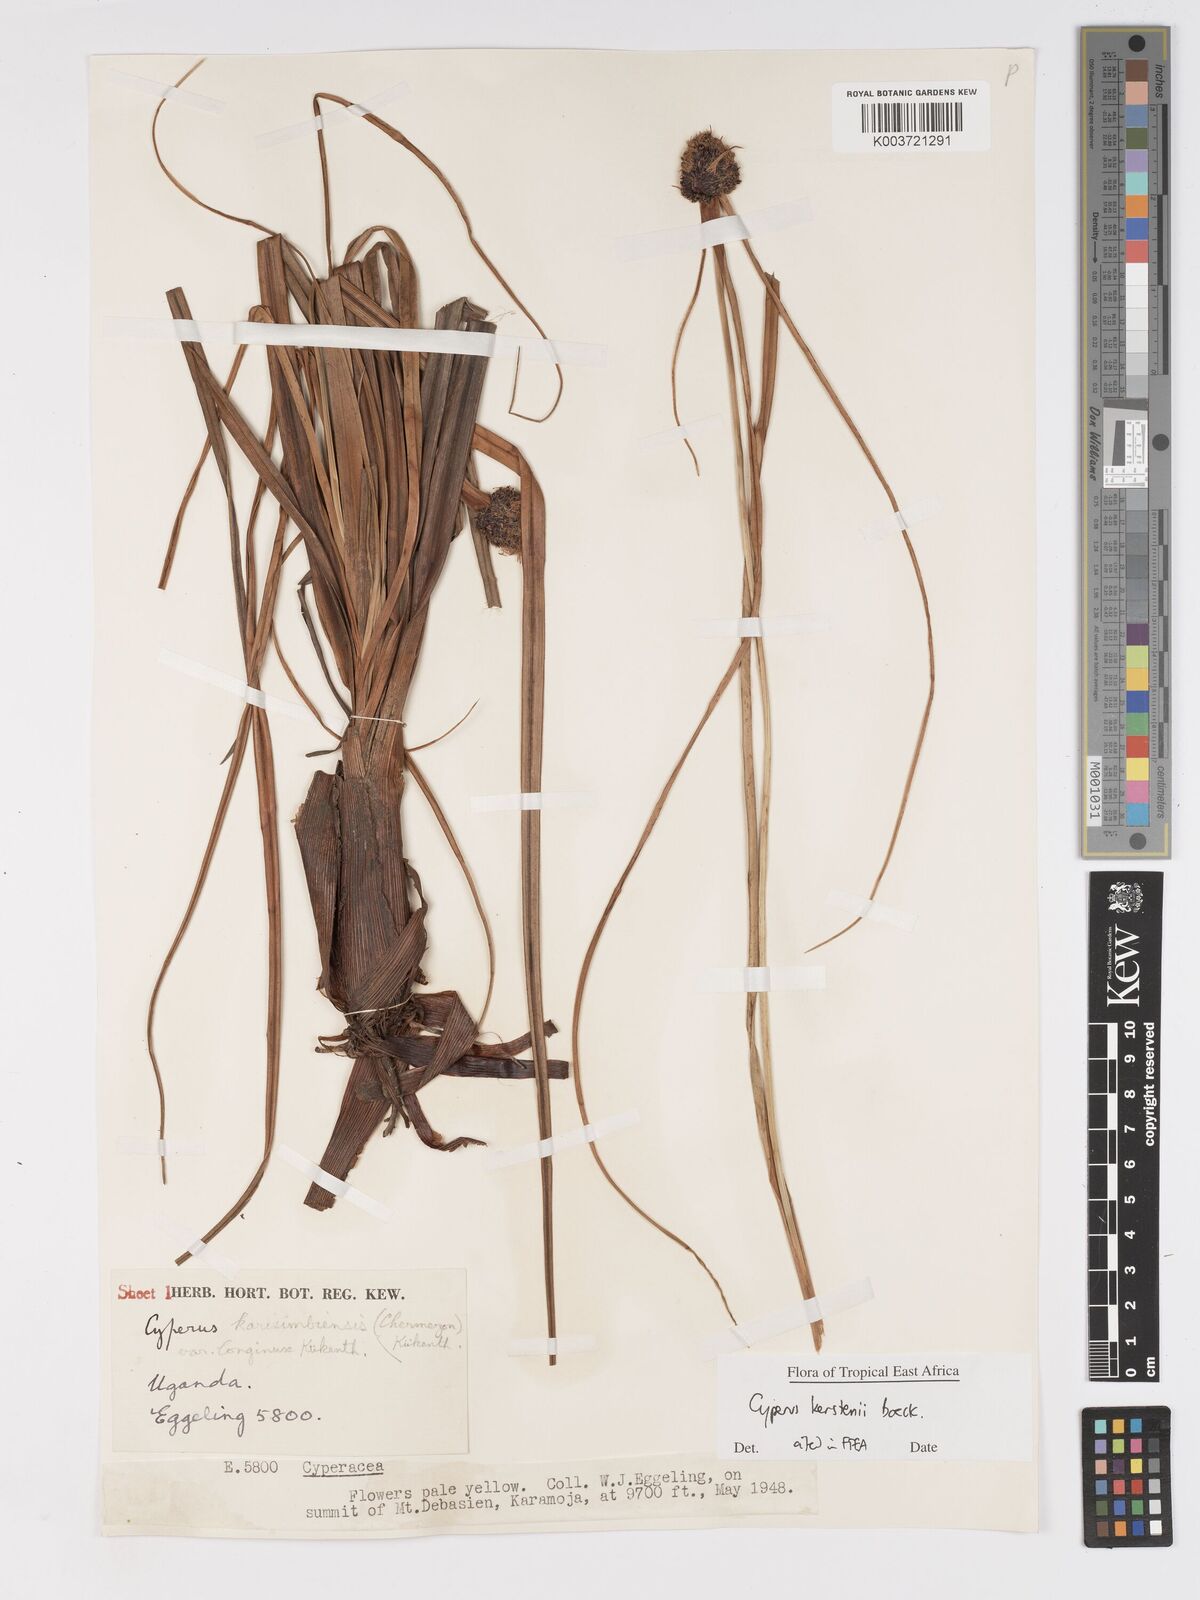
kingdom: Plantae
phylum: Tracheophyta
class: Liliopsida
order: Poales
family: Cyperaceae
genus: Cyperus
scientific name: Cyperus kerstenii
